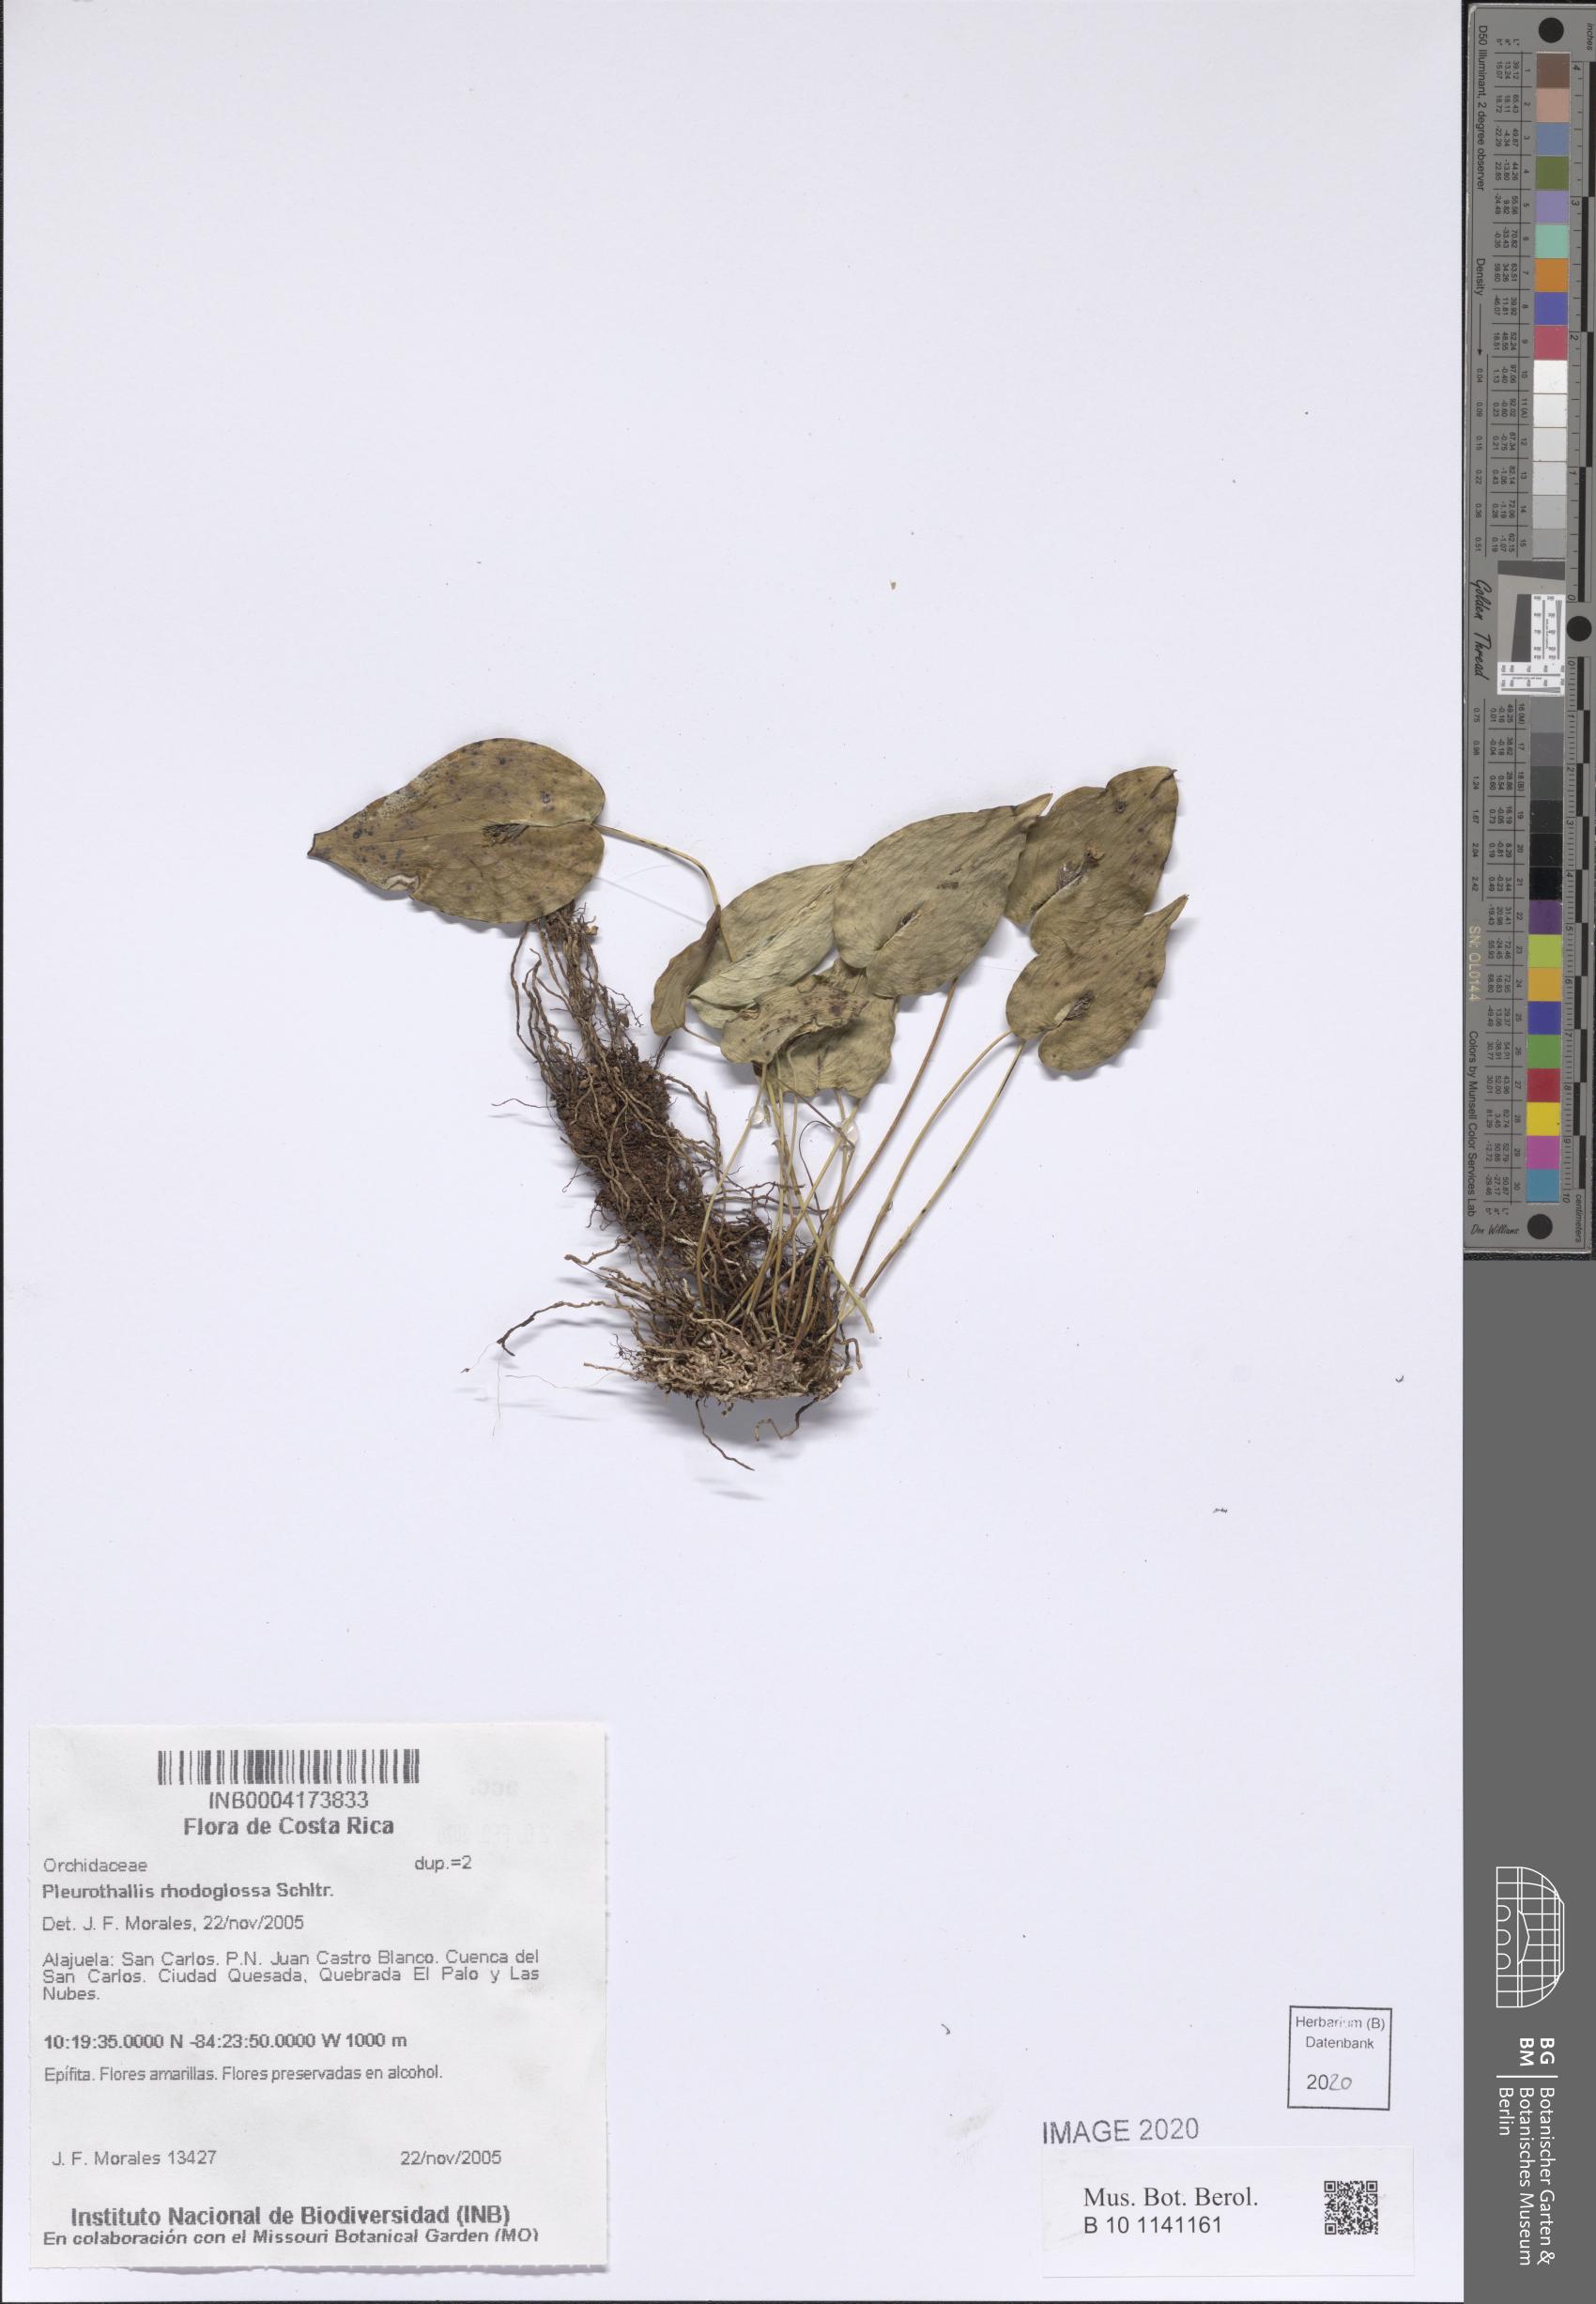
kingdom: Plantae
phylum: Tracheophyta
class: Liliopsida
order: Asparagales
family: Orchidaceae
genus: Pleurothallis
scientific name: Pleurothallis rhodoglossa
